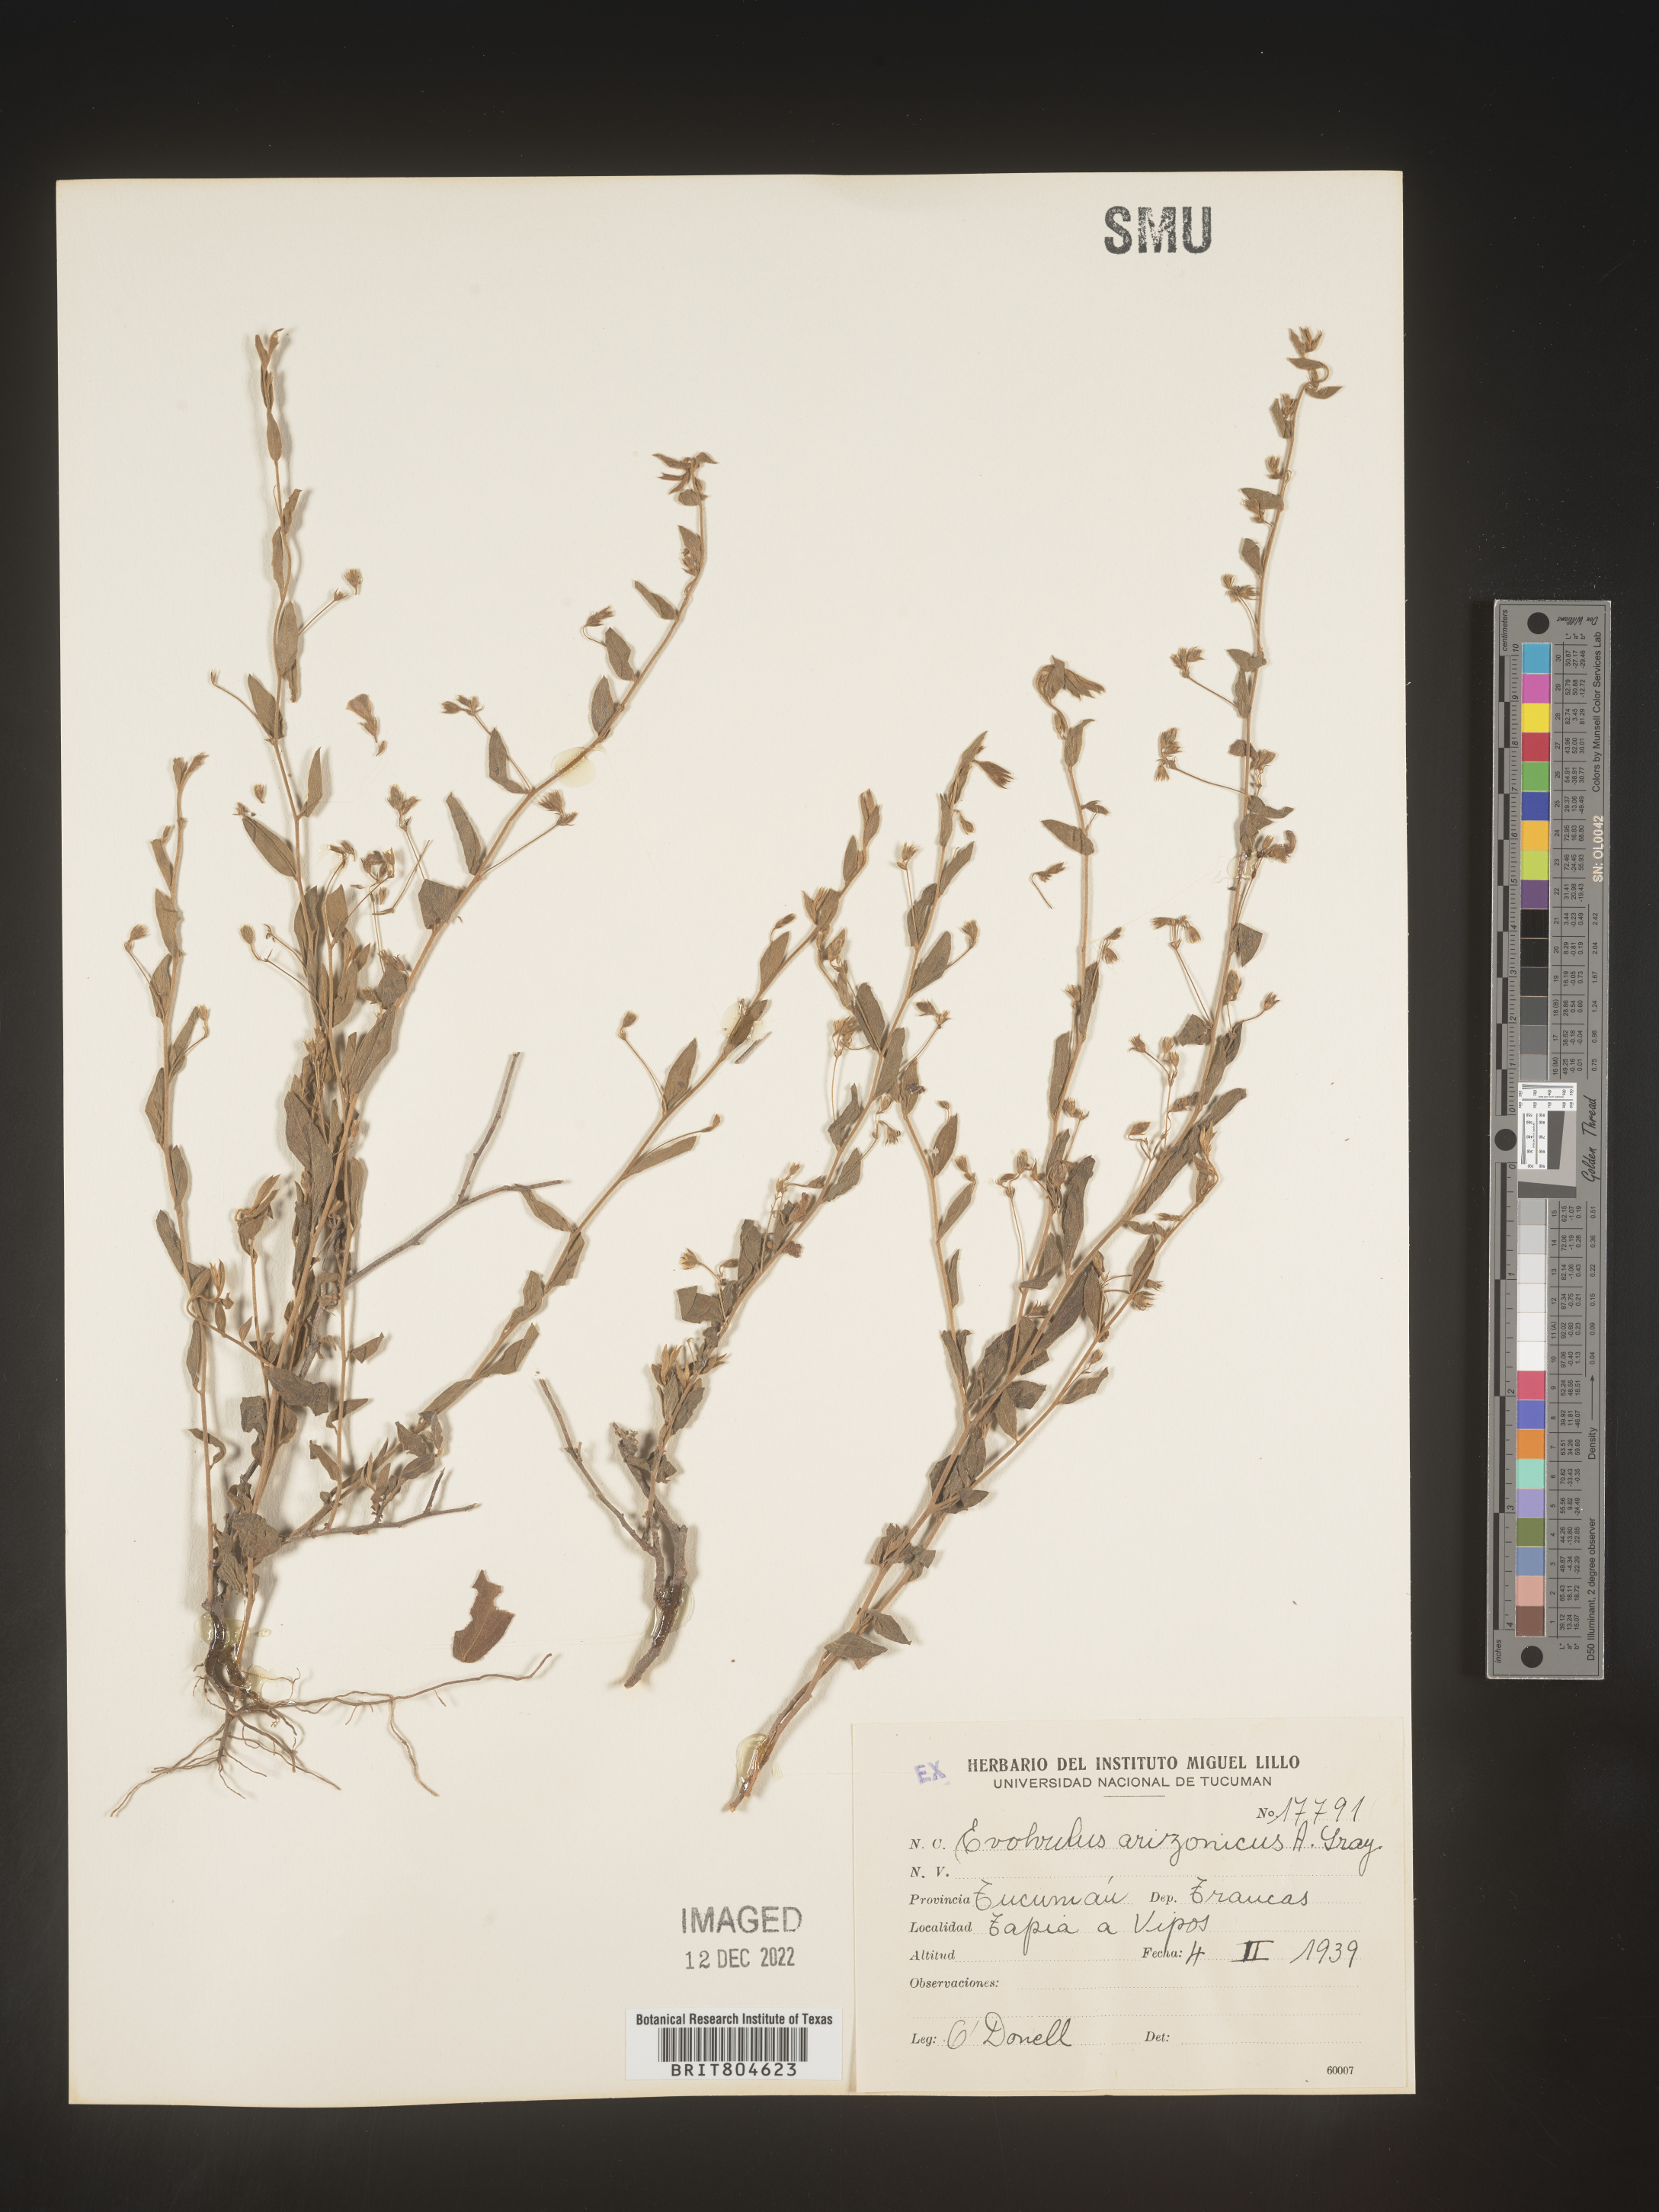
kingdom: Plantae
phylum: Tracheophyta
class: Magnoliopsida
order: Solanales
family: Convolvulaceae
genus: Evolvulus
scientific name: Evolvulus
